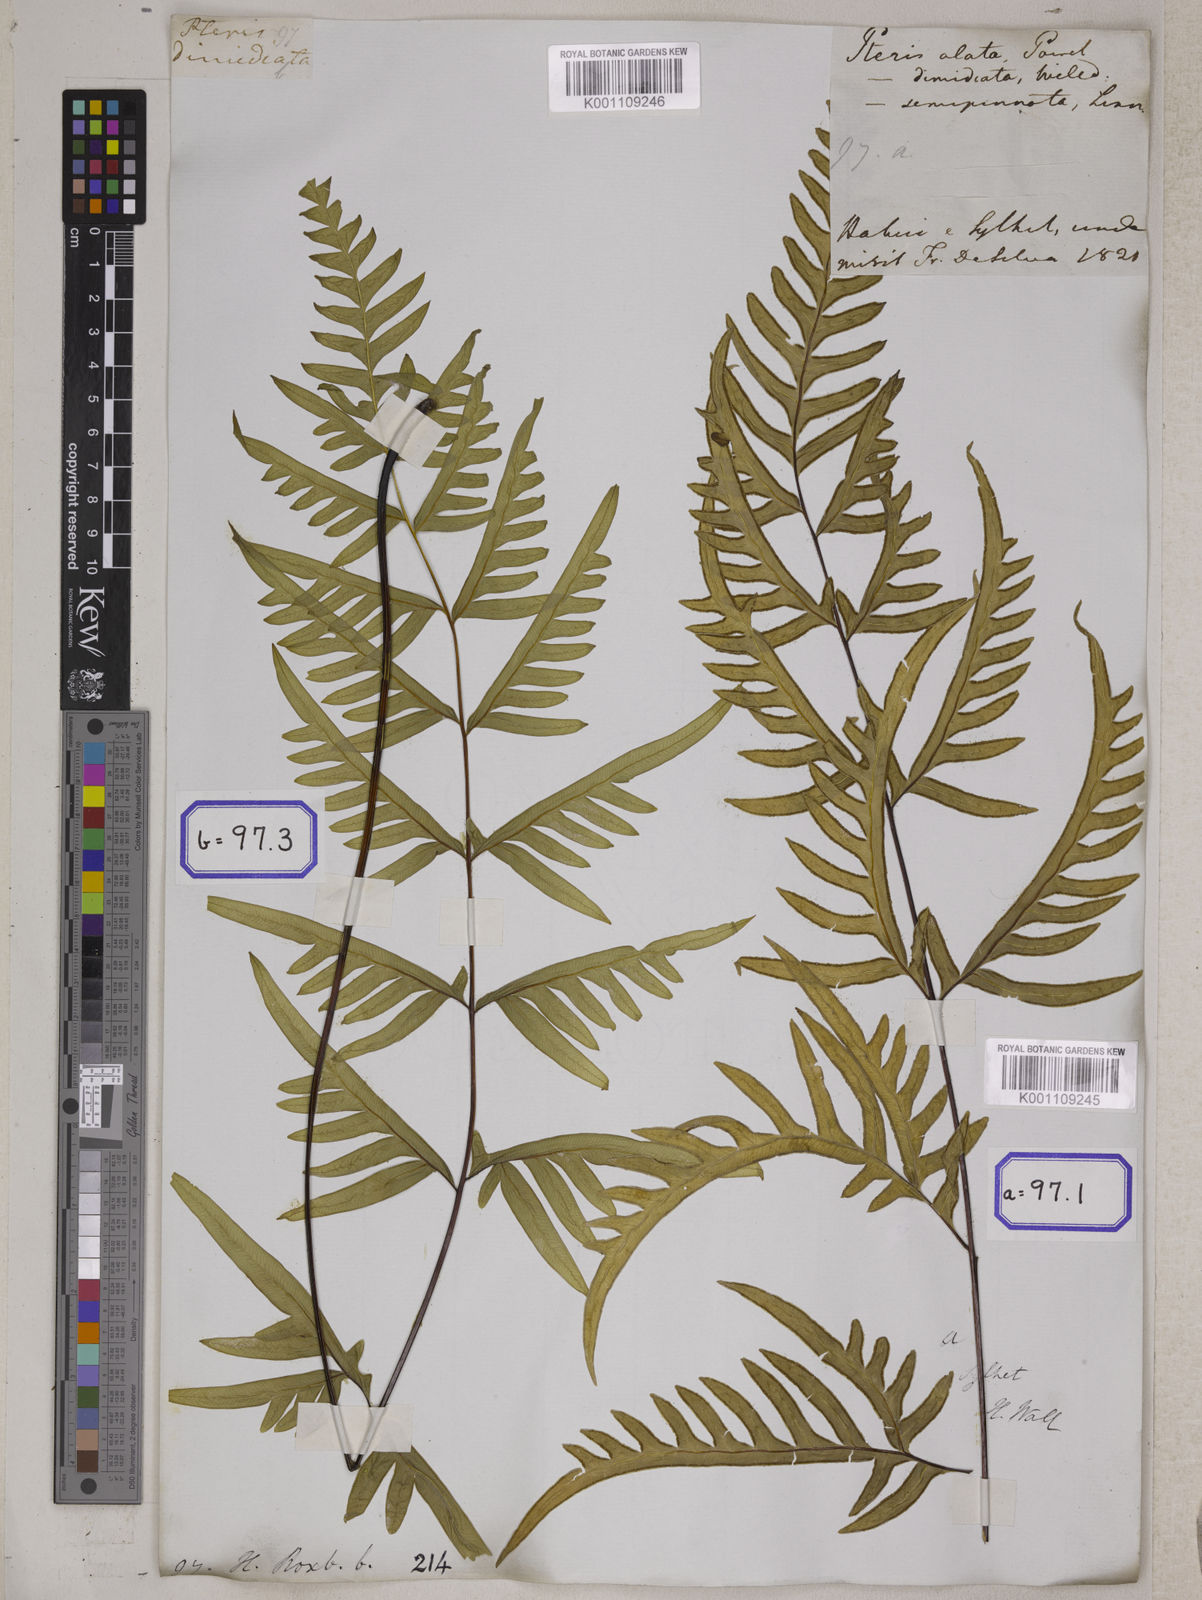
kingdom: Plantae
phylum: Tracheophyta
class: Polypodiopsida
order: Polypodiales
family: Pteridaceae
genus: Pteris
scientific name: Pteris semipinnata
